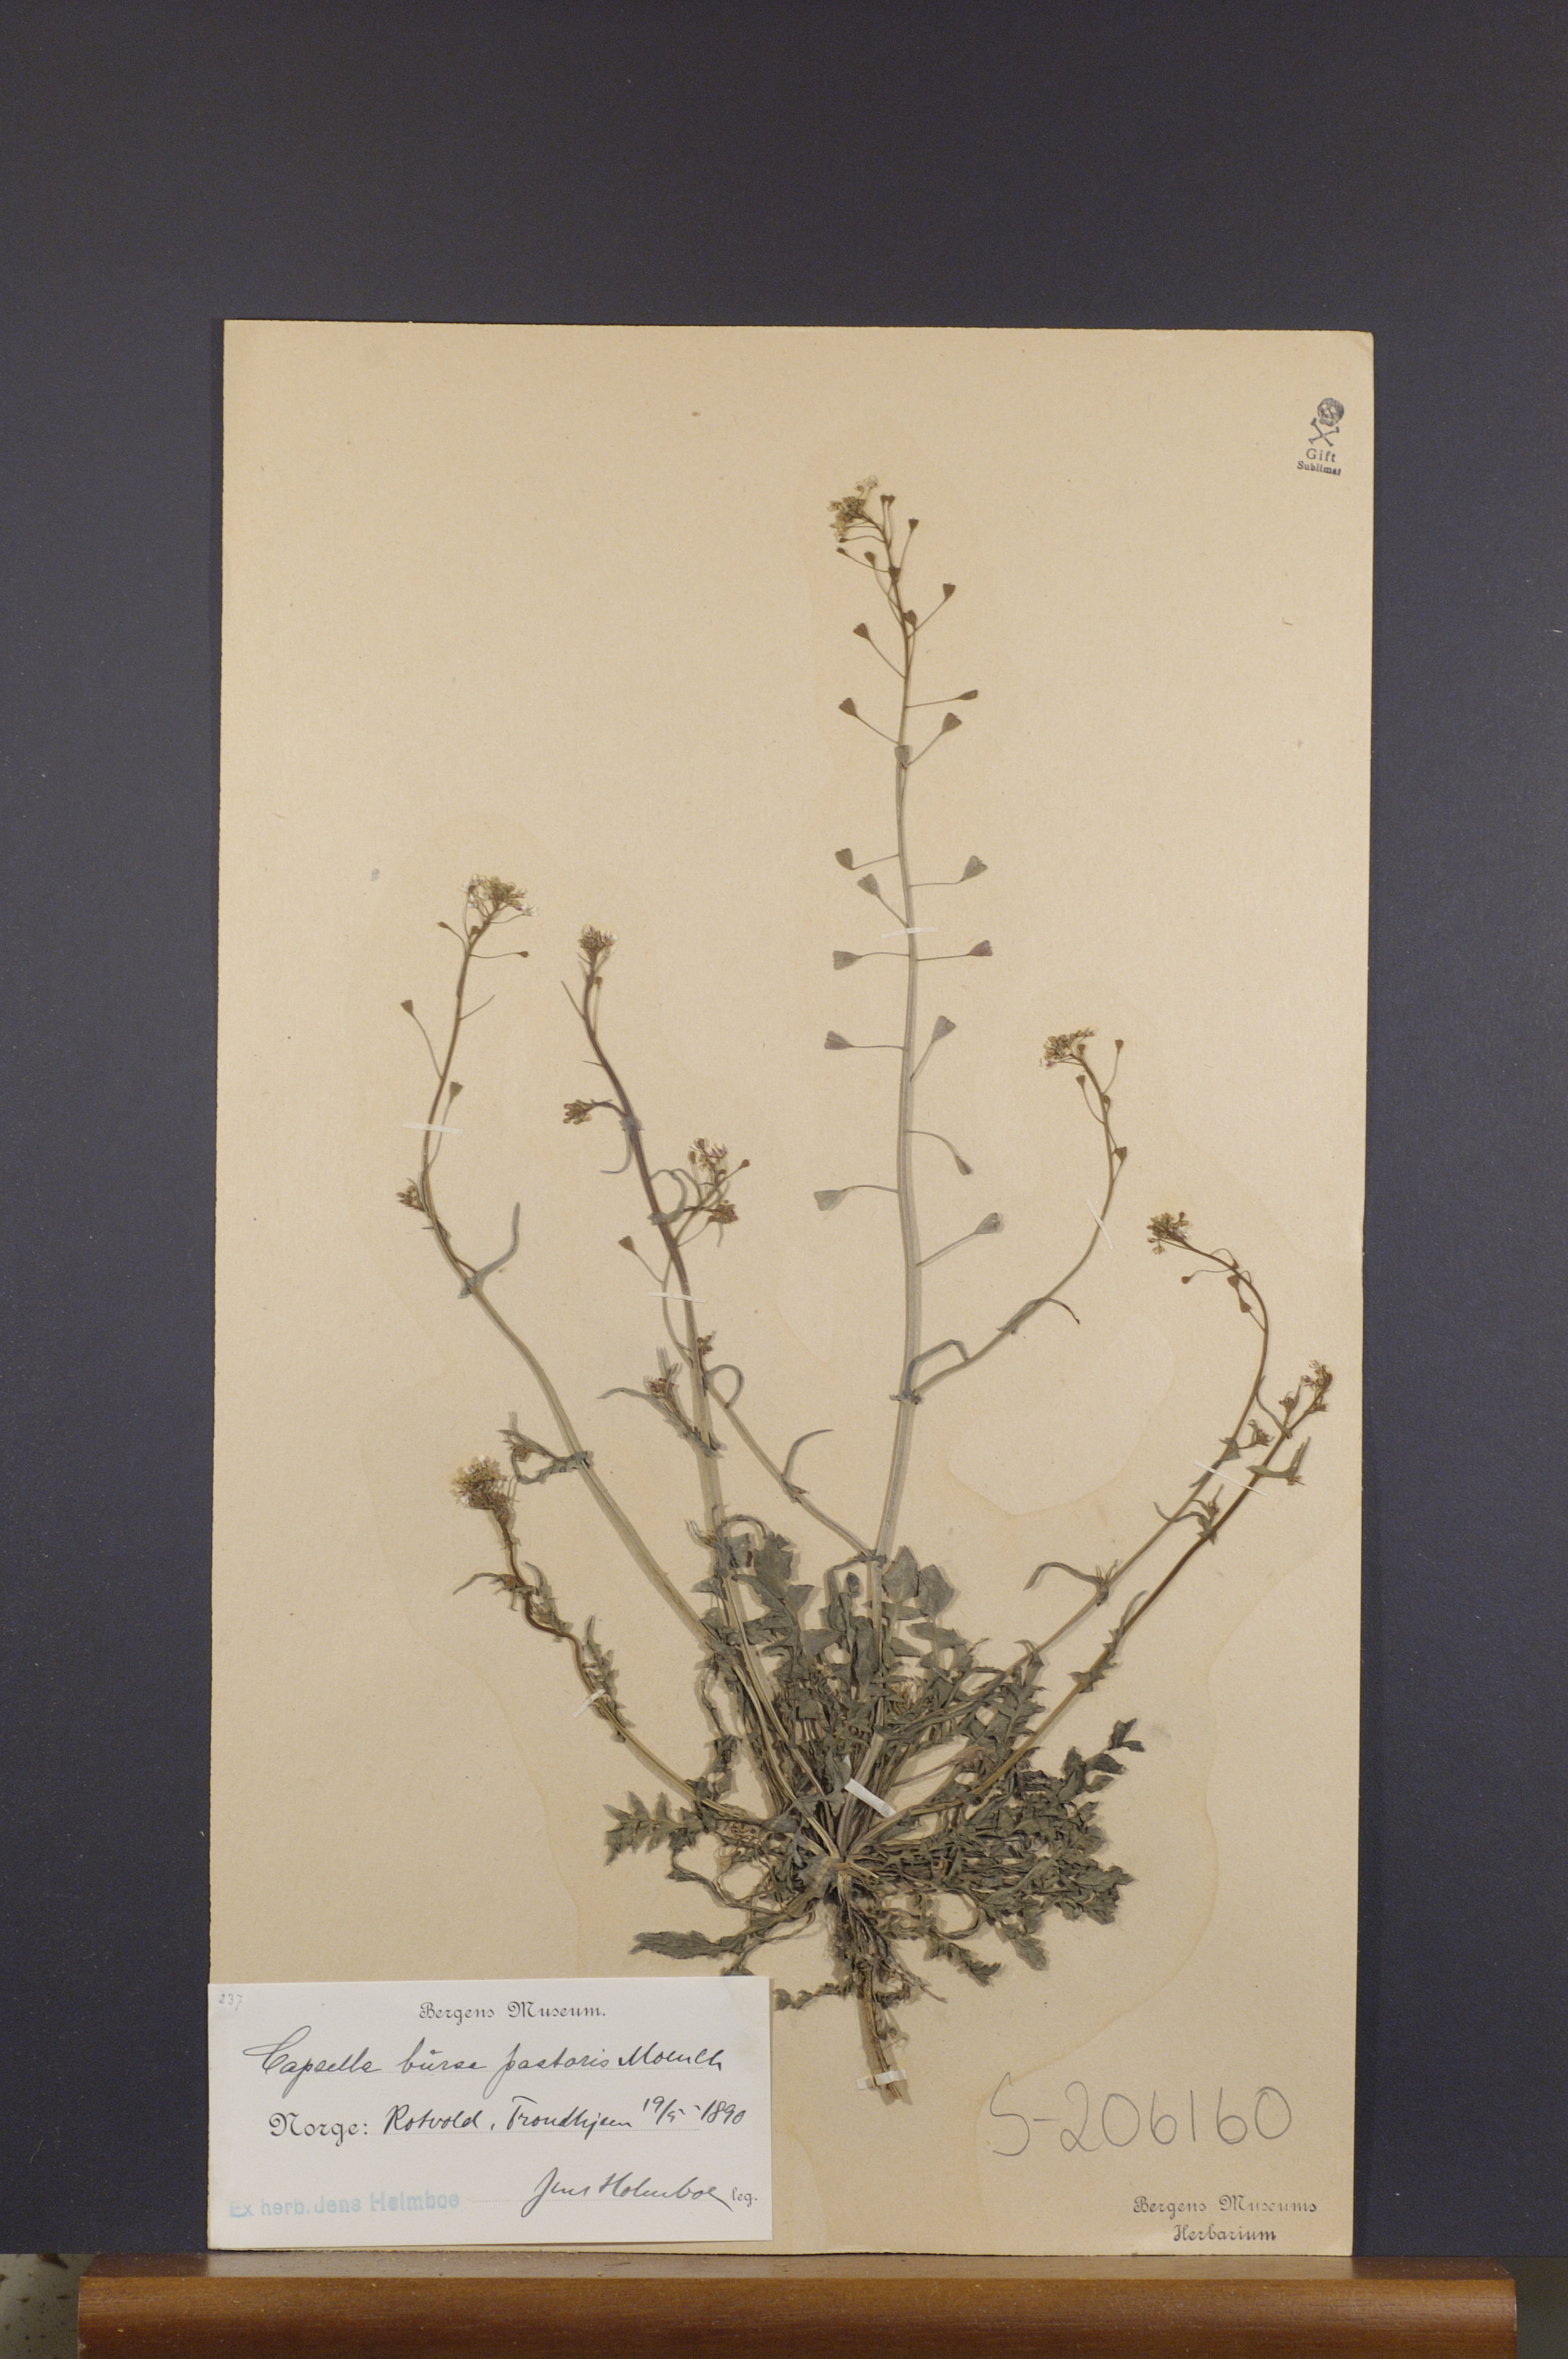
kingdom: Plantae
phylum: Tracheophyta
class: Magnoliopsida
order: Brassicales
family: Brassicaceae
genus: Capsella
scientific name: Capsella bursa-pastoris
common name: Shepherd's purse
